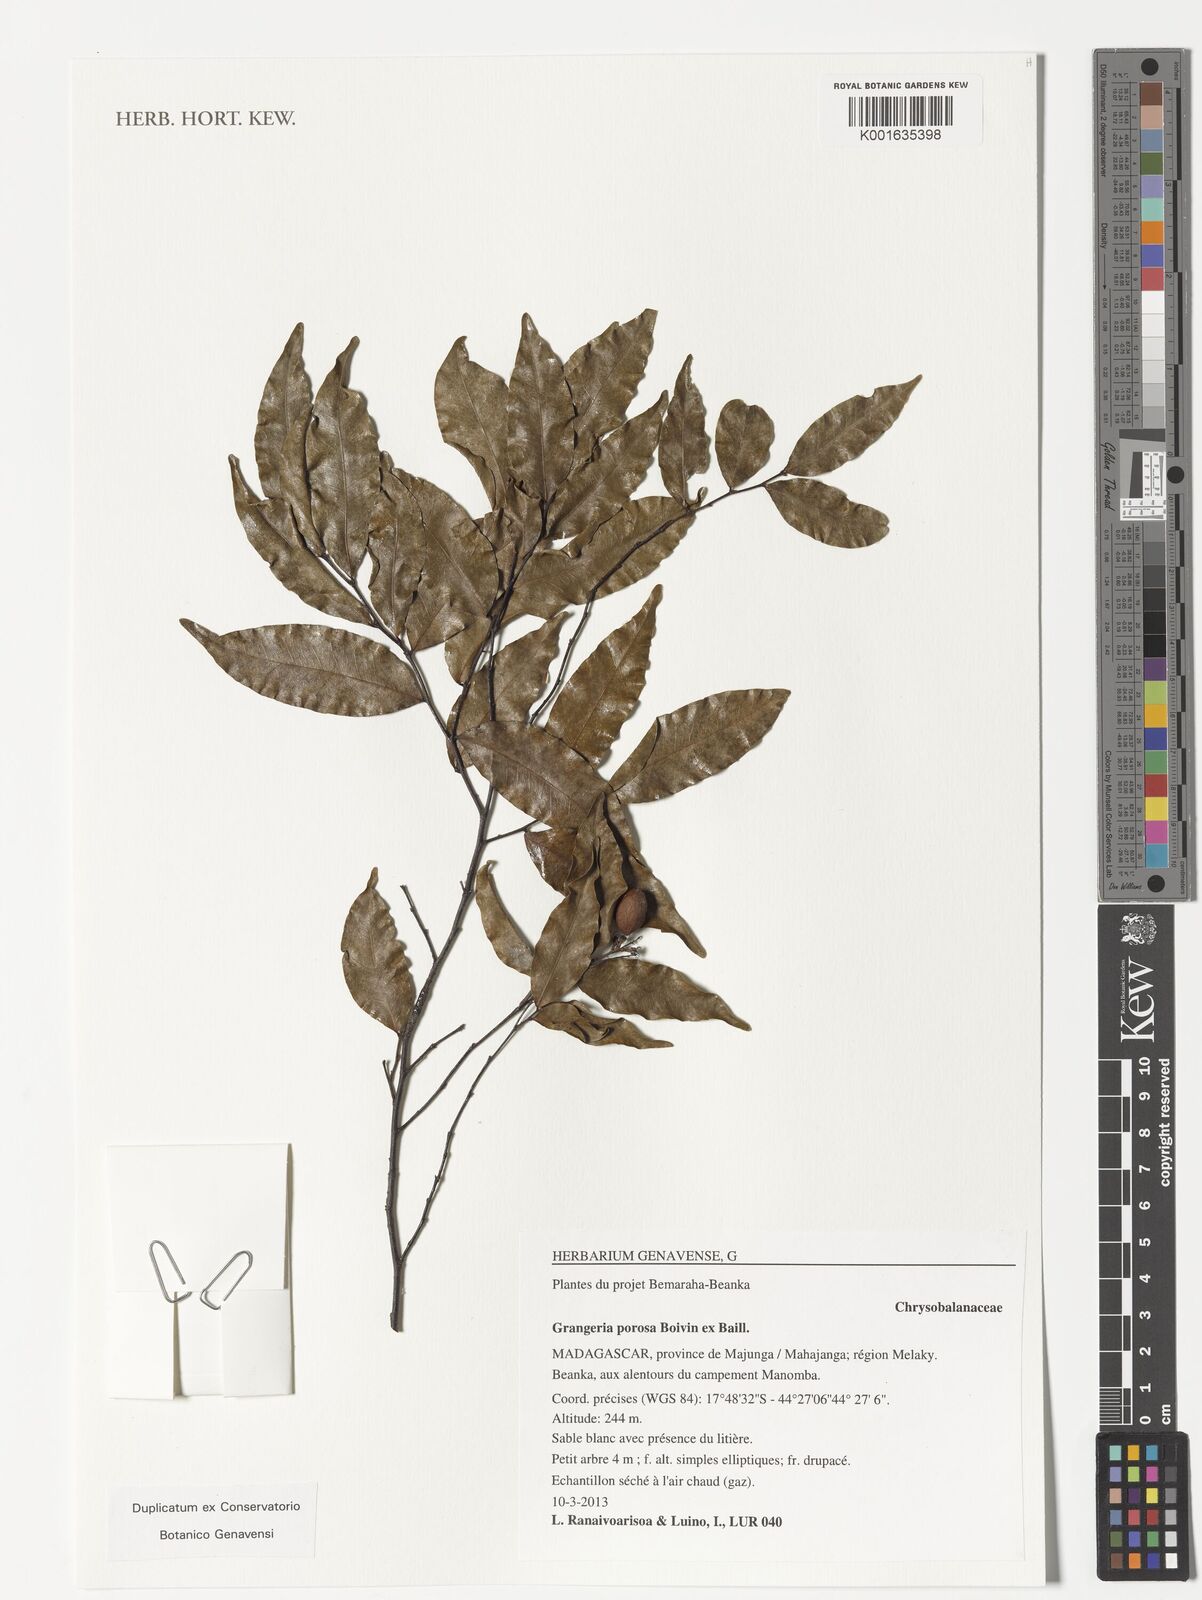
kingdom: Plantae
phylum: Tracheophyta
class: Magnoliopsida
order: Malpighiales
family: Chrysobalanaceae
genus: Grangeria
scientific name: Grangeria porosa
